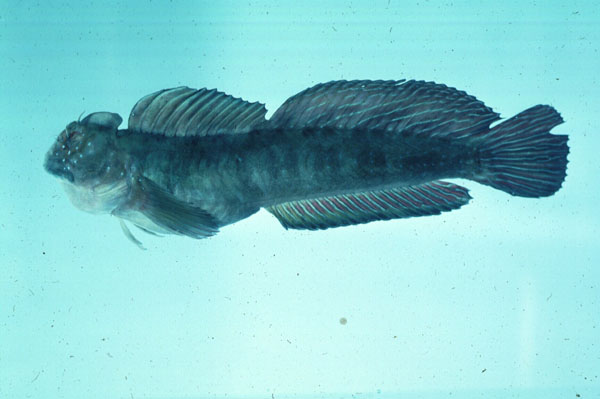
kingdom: Animalia
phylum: Chordata
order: Perciformes
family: Blenniidae
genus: Istiblennius
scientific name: Istiblennius bellus
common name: Beautiful rockskipper
